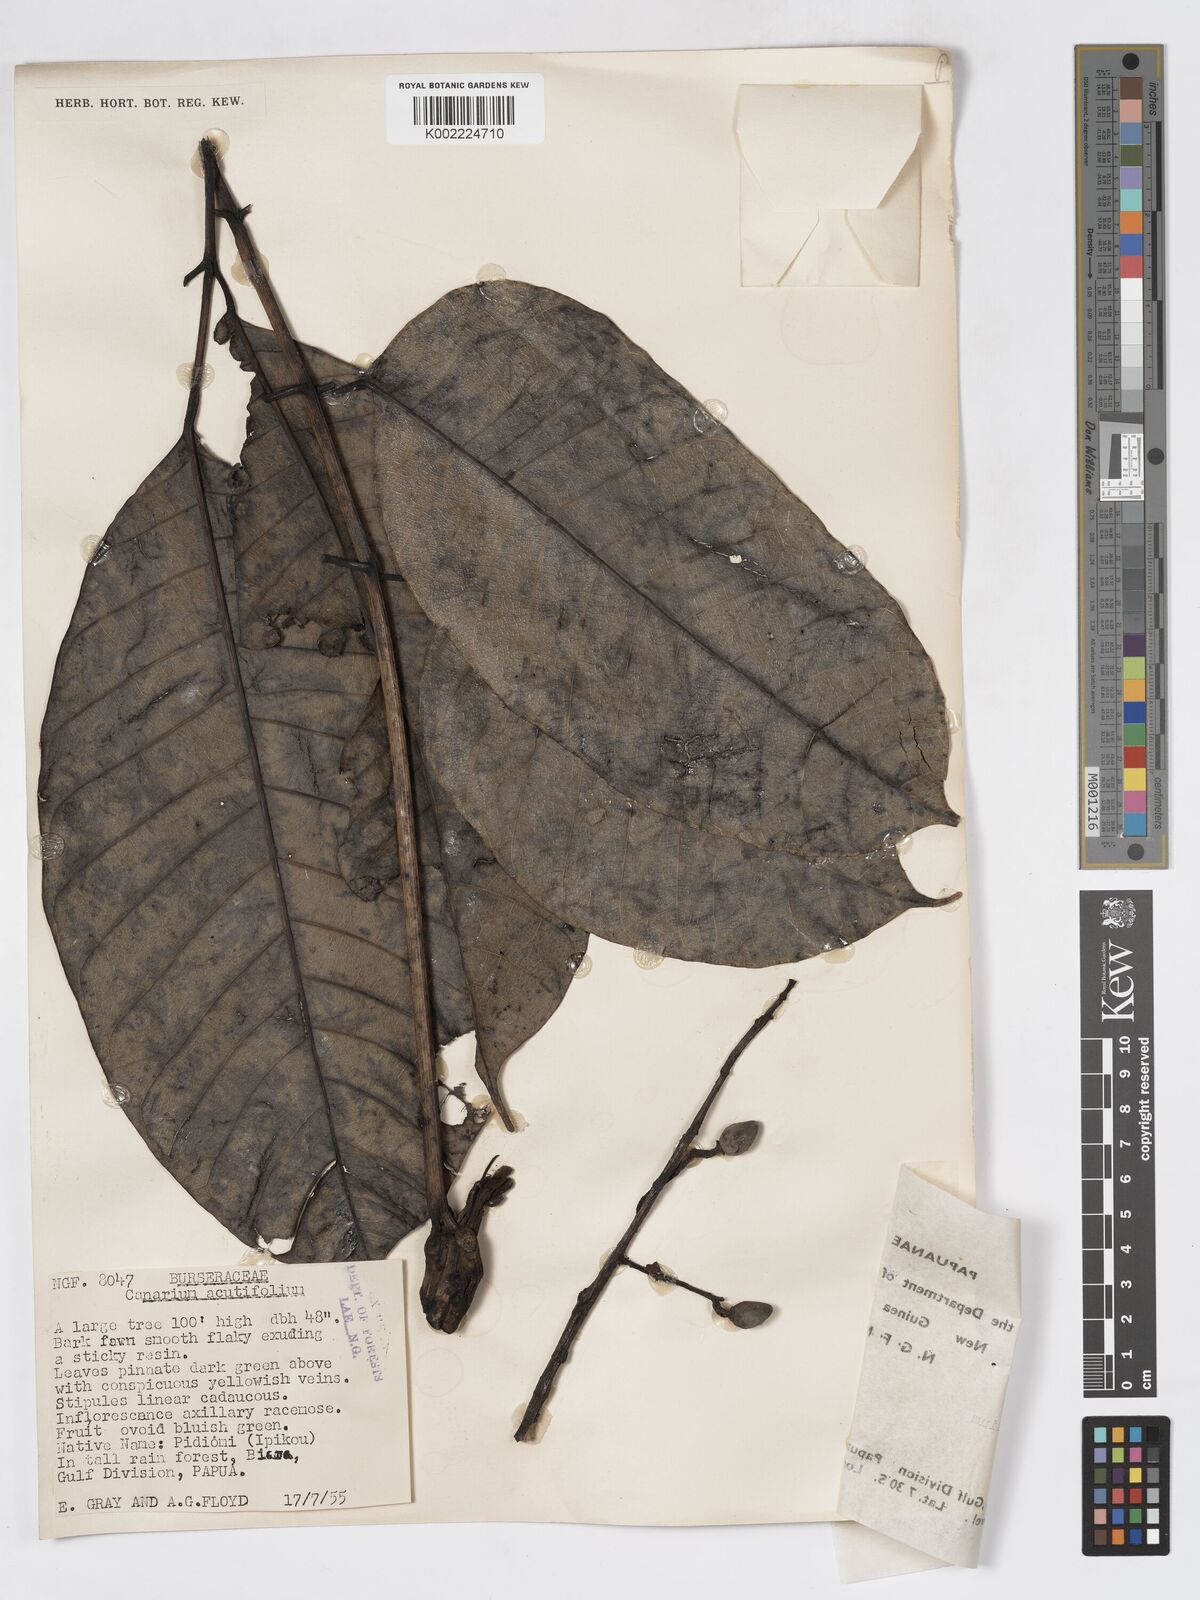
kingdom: Plantae
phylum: Tracheophyta
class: Magnoliopsida
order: Sapindales
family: Burseraceae
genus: Canarium
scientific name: Canarium acutifolium
